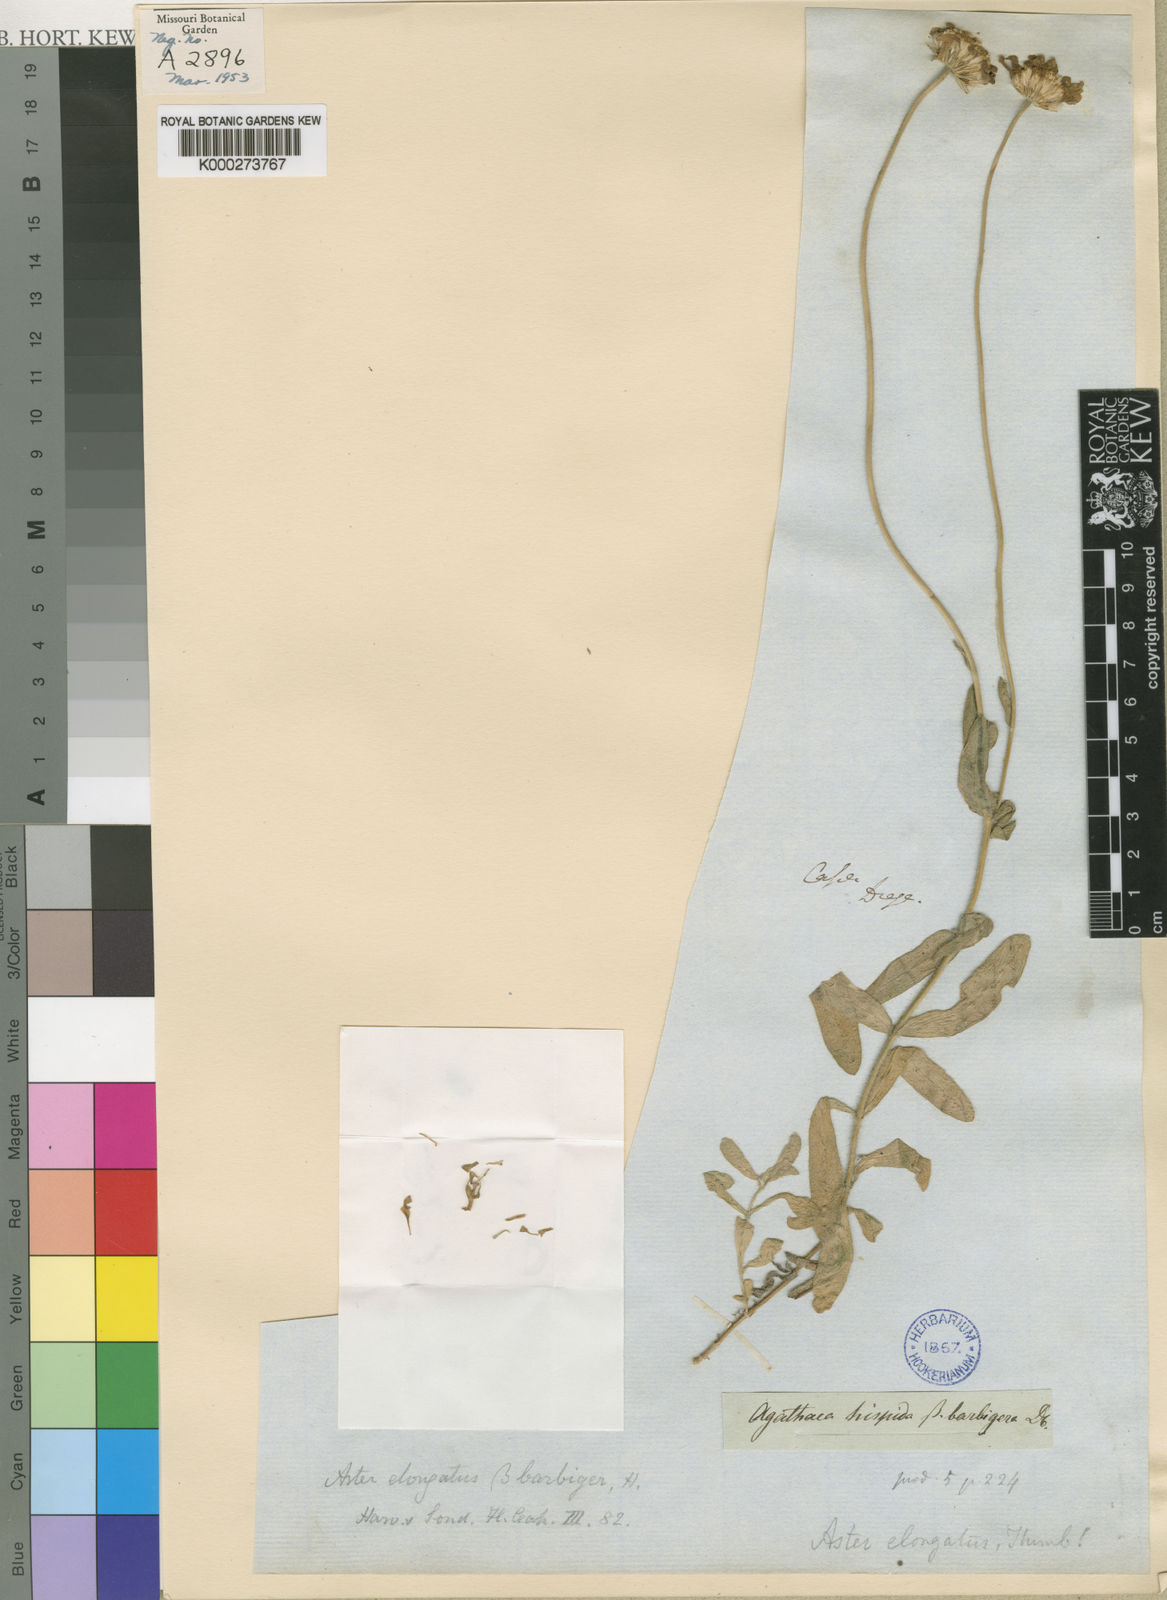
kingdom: Plantae
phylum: Tracheophyta
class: Magnoliopsida
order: Asterales
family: Asteraceae
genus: Felicia
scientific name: Felicia elongata
